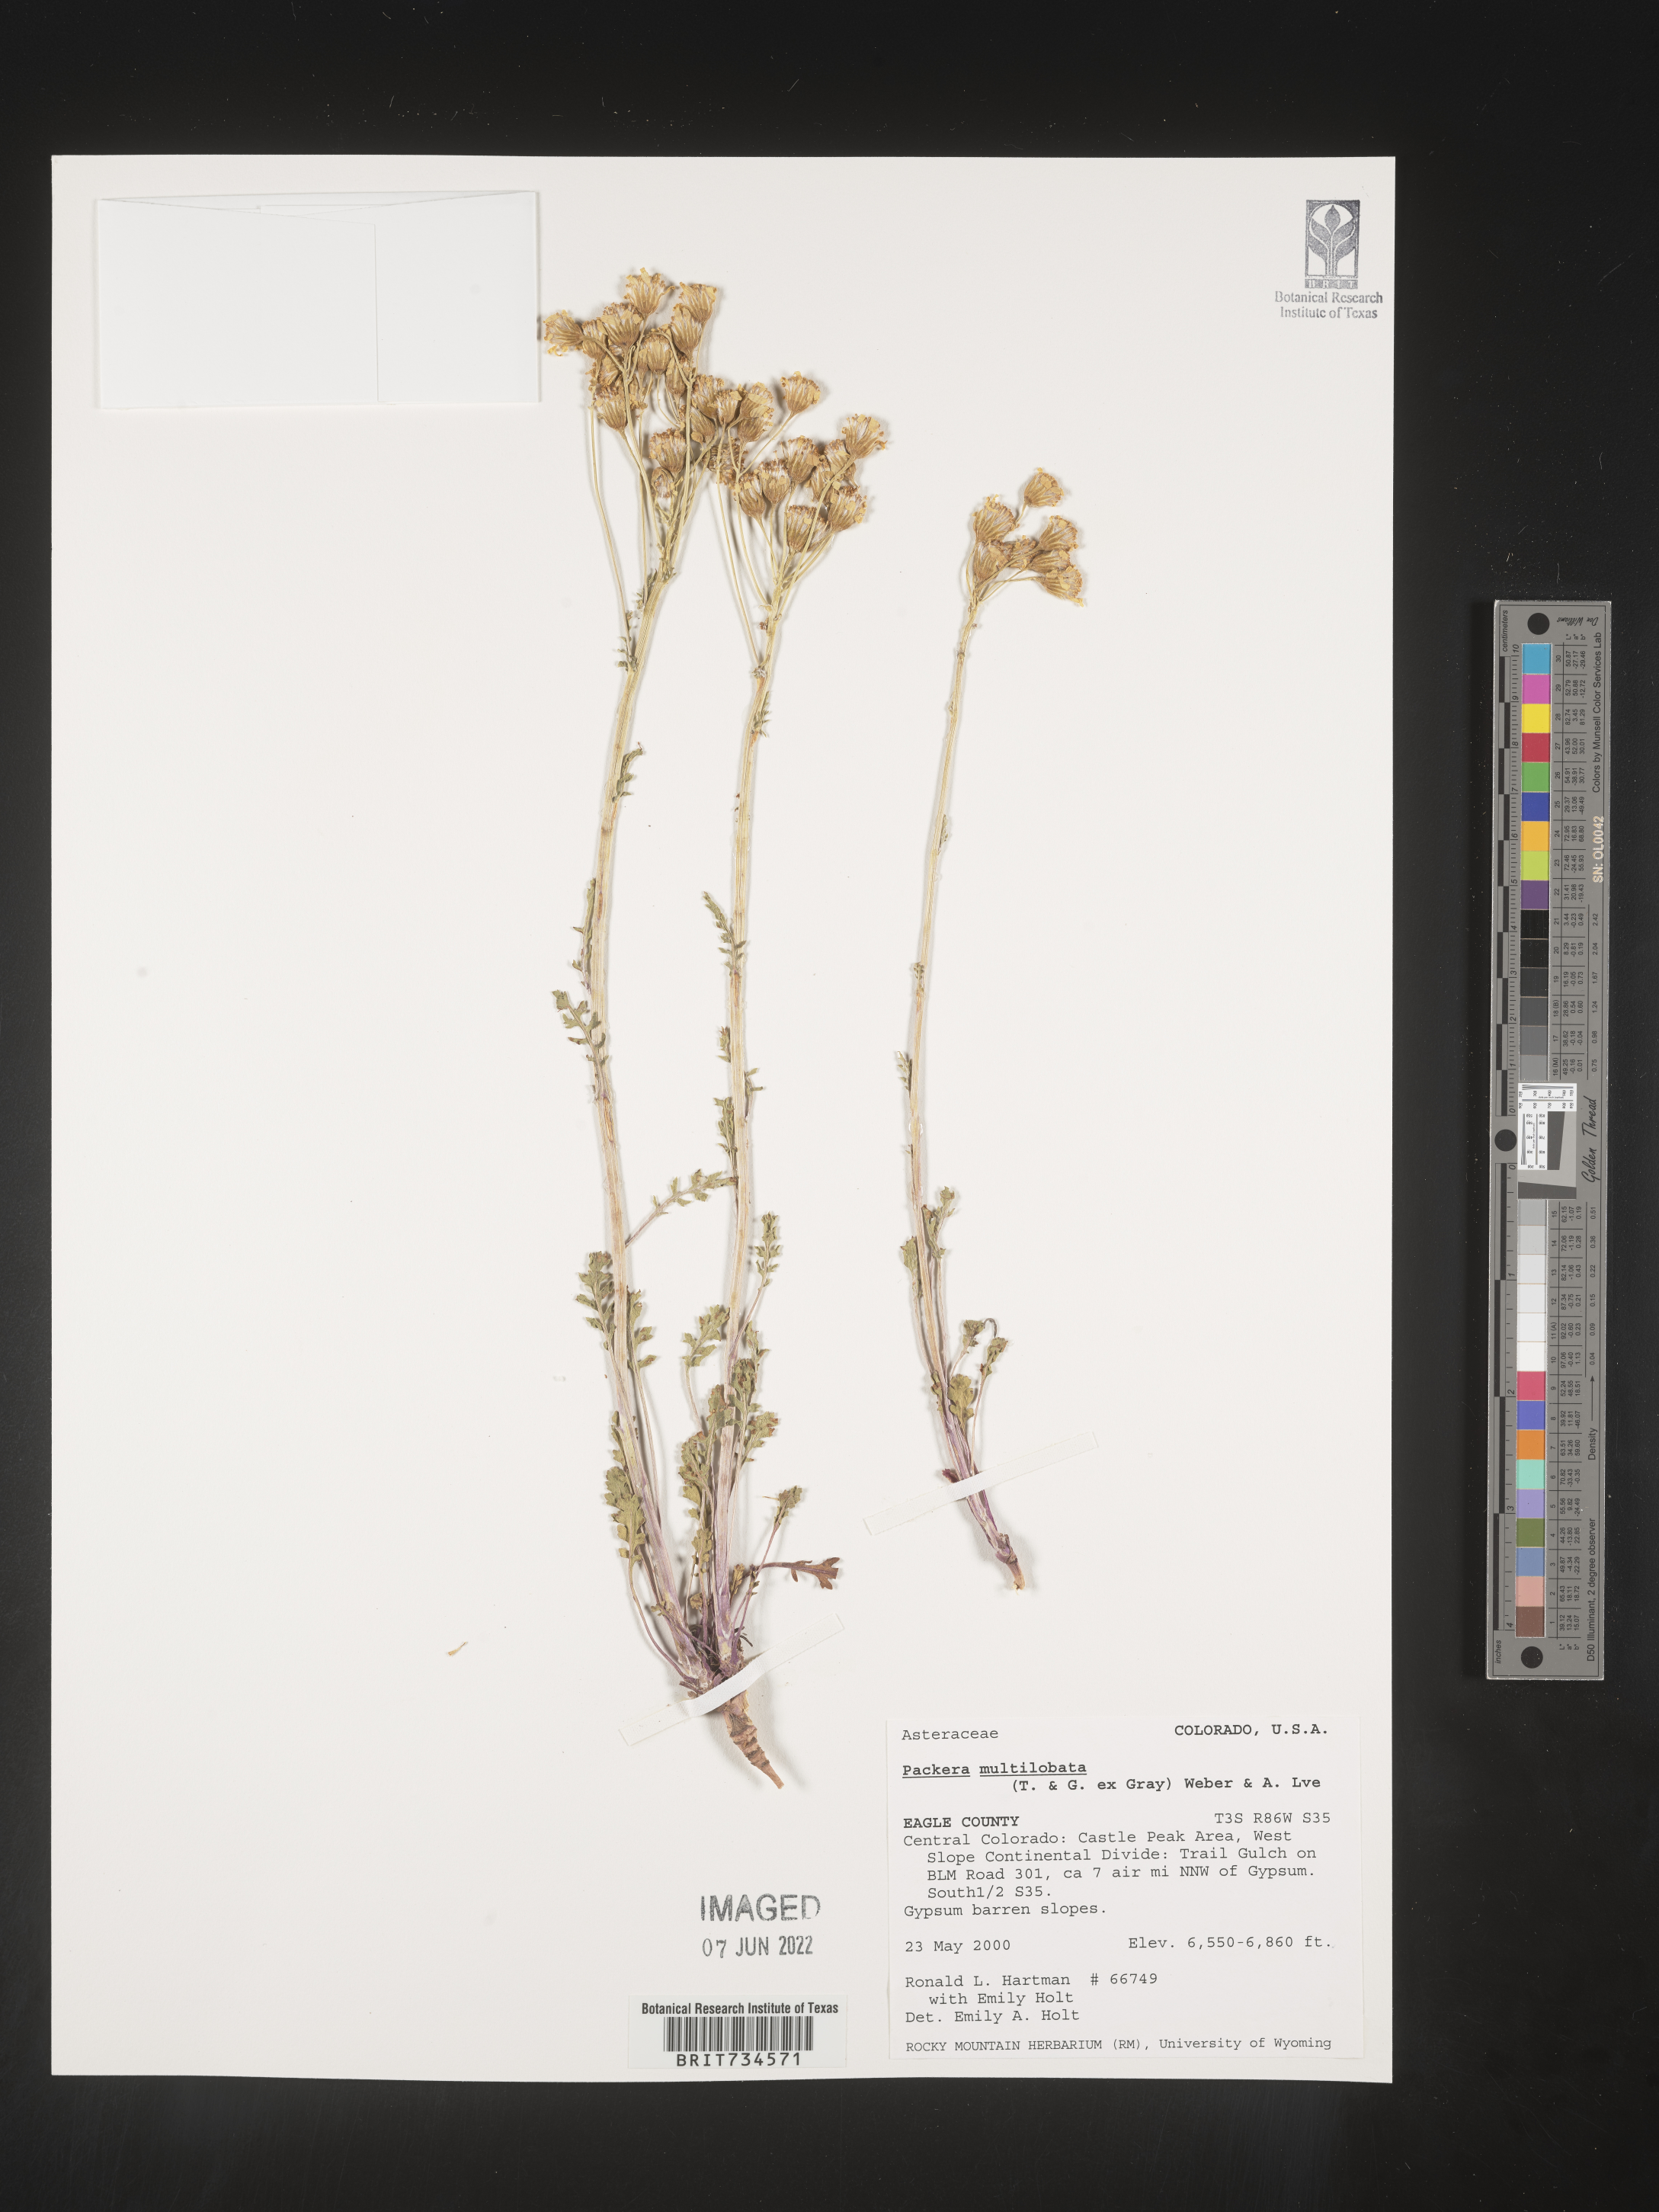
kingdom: Plantae
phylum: Tracheophyta
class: Magnoliopsida
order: Asterales
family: Asteraceae
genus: Packera
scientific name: Packera multilobata
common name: Lobe-leaf groundsel
